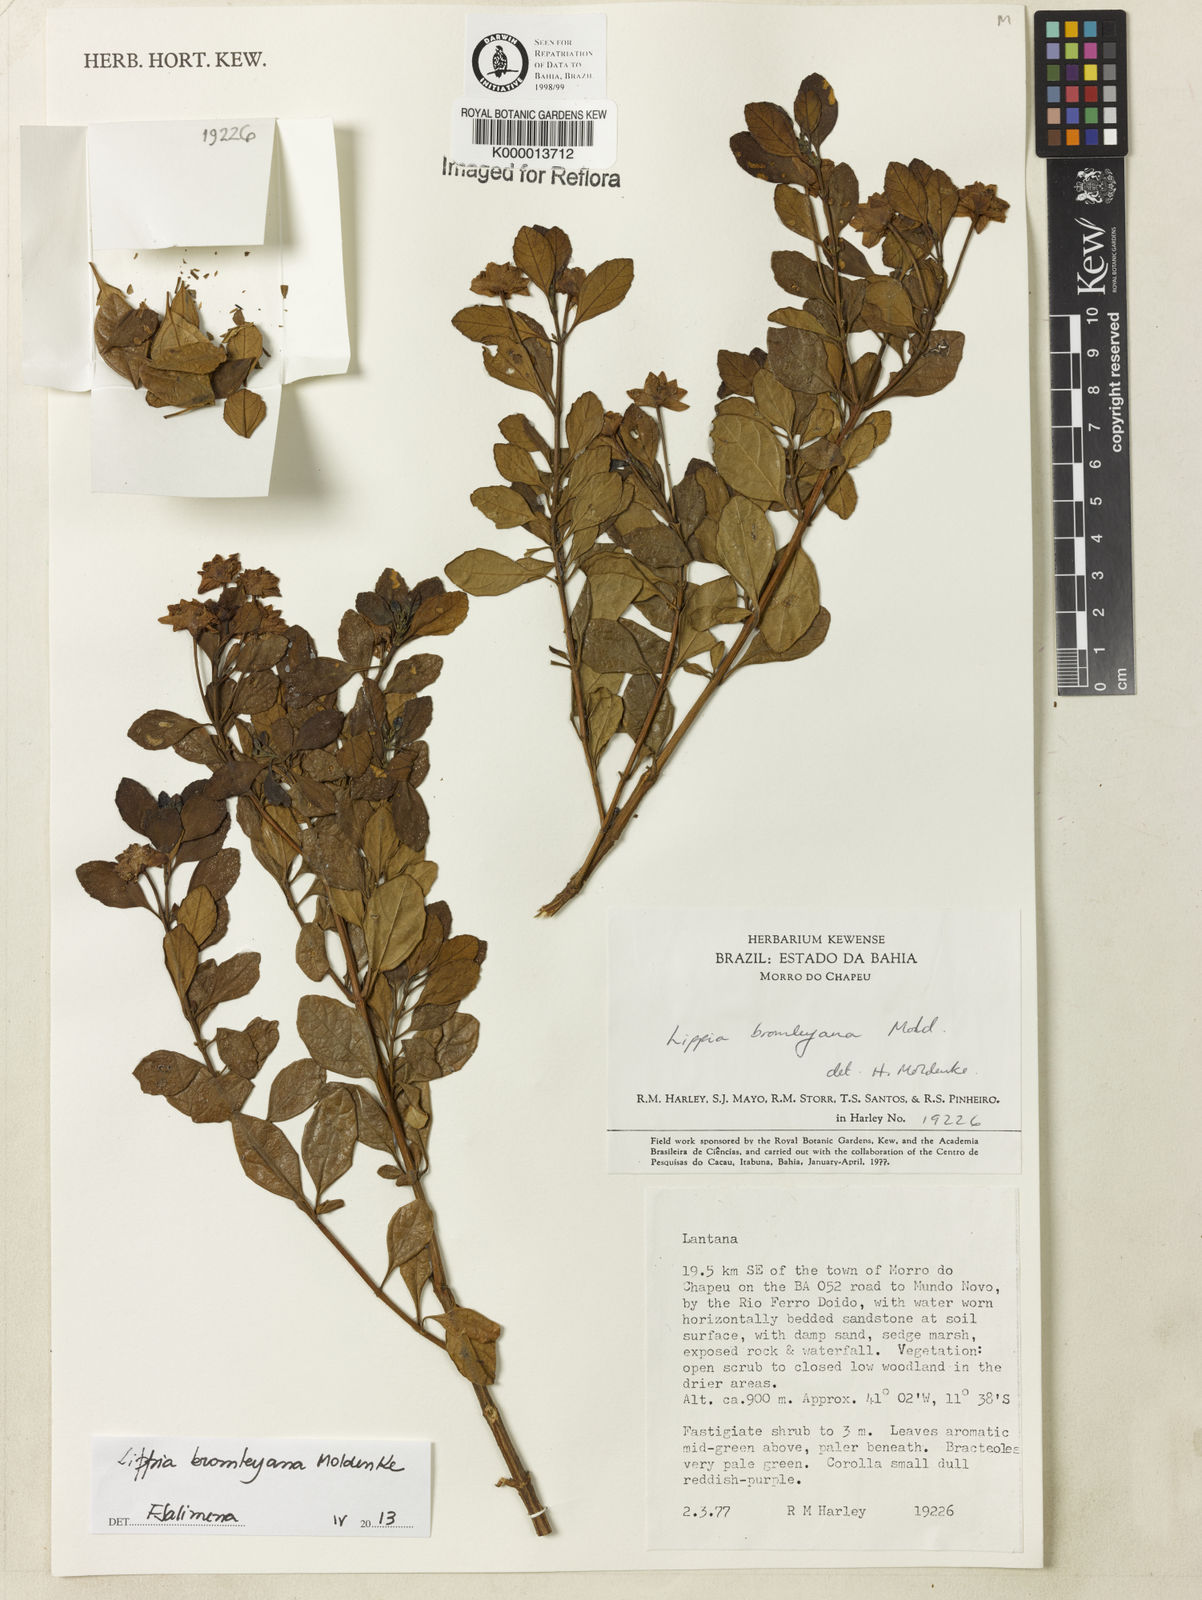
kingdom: Plantae
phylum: Tracheophyta
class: Magnoliopsida
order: Lamiales
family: Verbenaceae
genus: Lippia
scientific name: Lippia bromleyana
